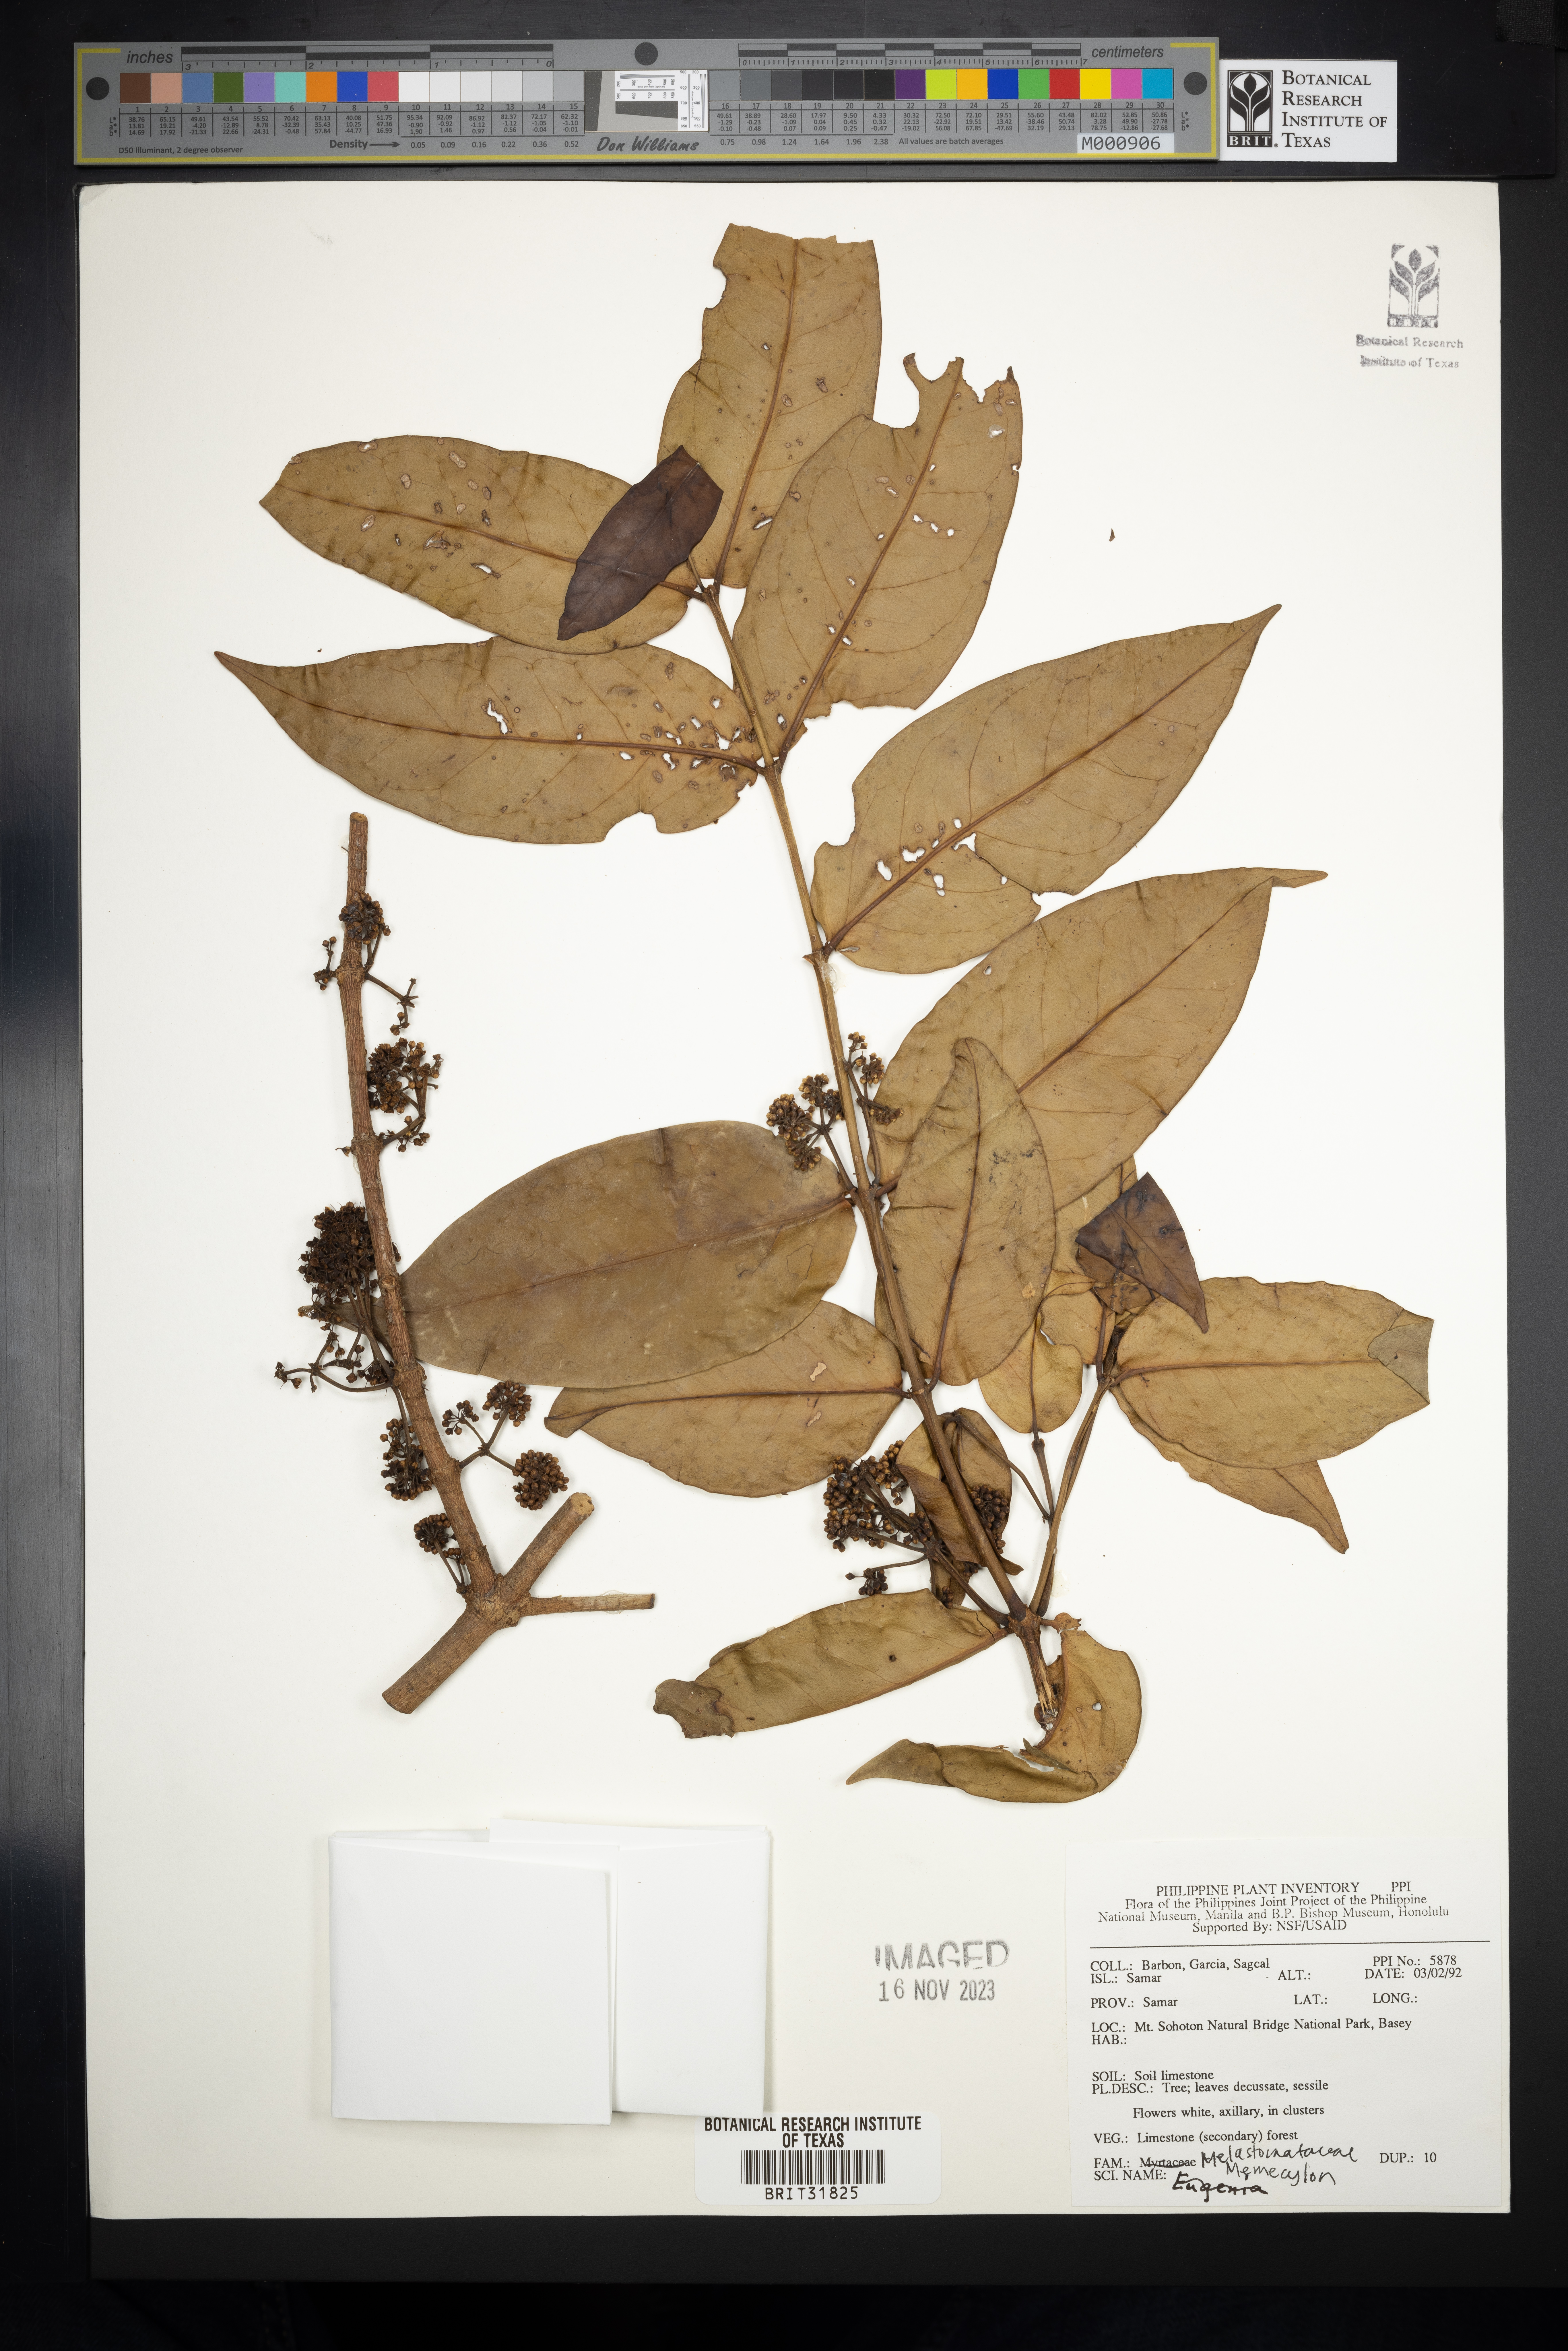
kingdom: Plantae
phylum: Tracheophyta
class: Magnoliopsida
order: Myrtales
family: Melastomataceae
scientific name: Melastomataceae
